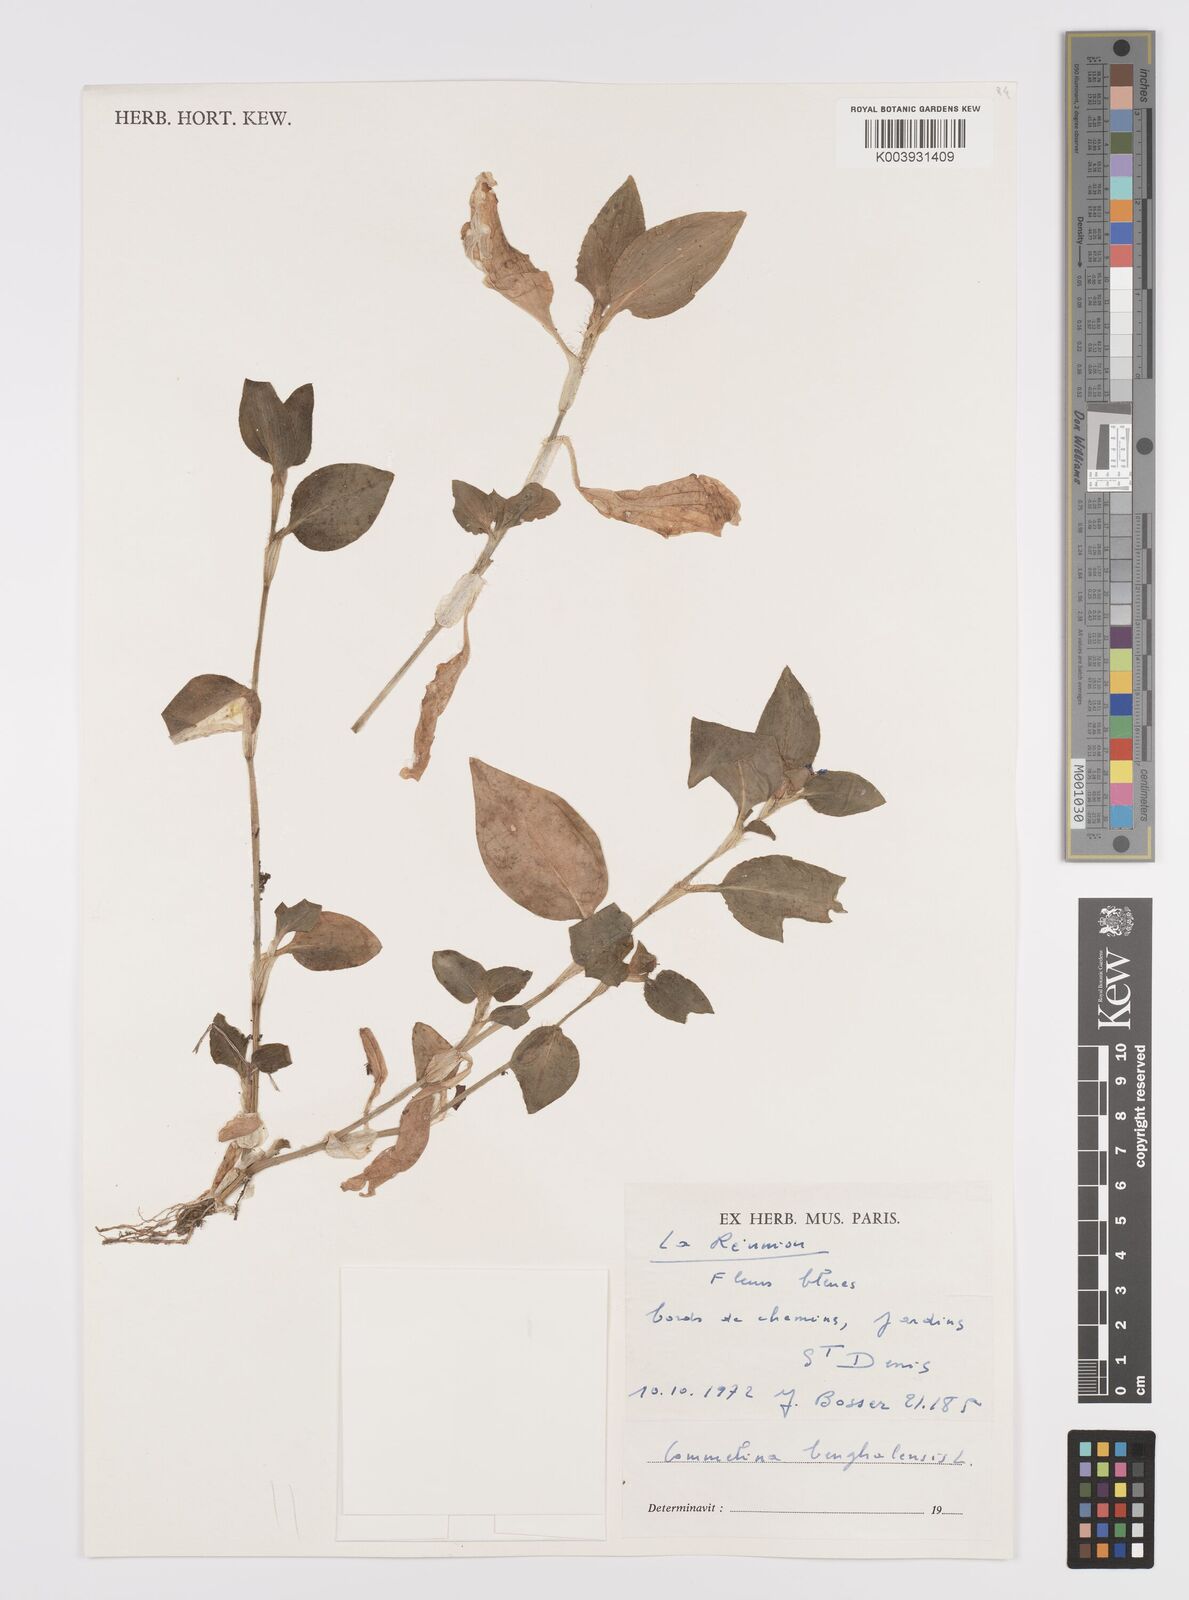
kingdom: Plantae
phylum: Tracheophyta
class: Liliopsida
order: Commelinales
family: Commelinaceae
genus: Commelina
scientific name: Commelina benghalensis
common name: Jio
